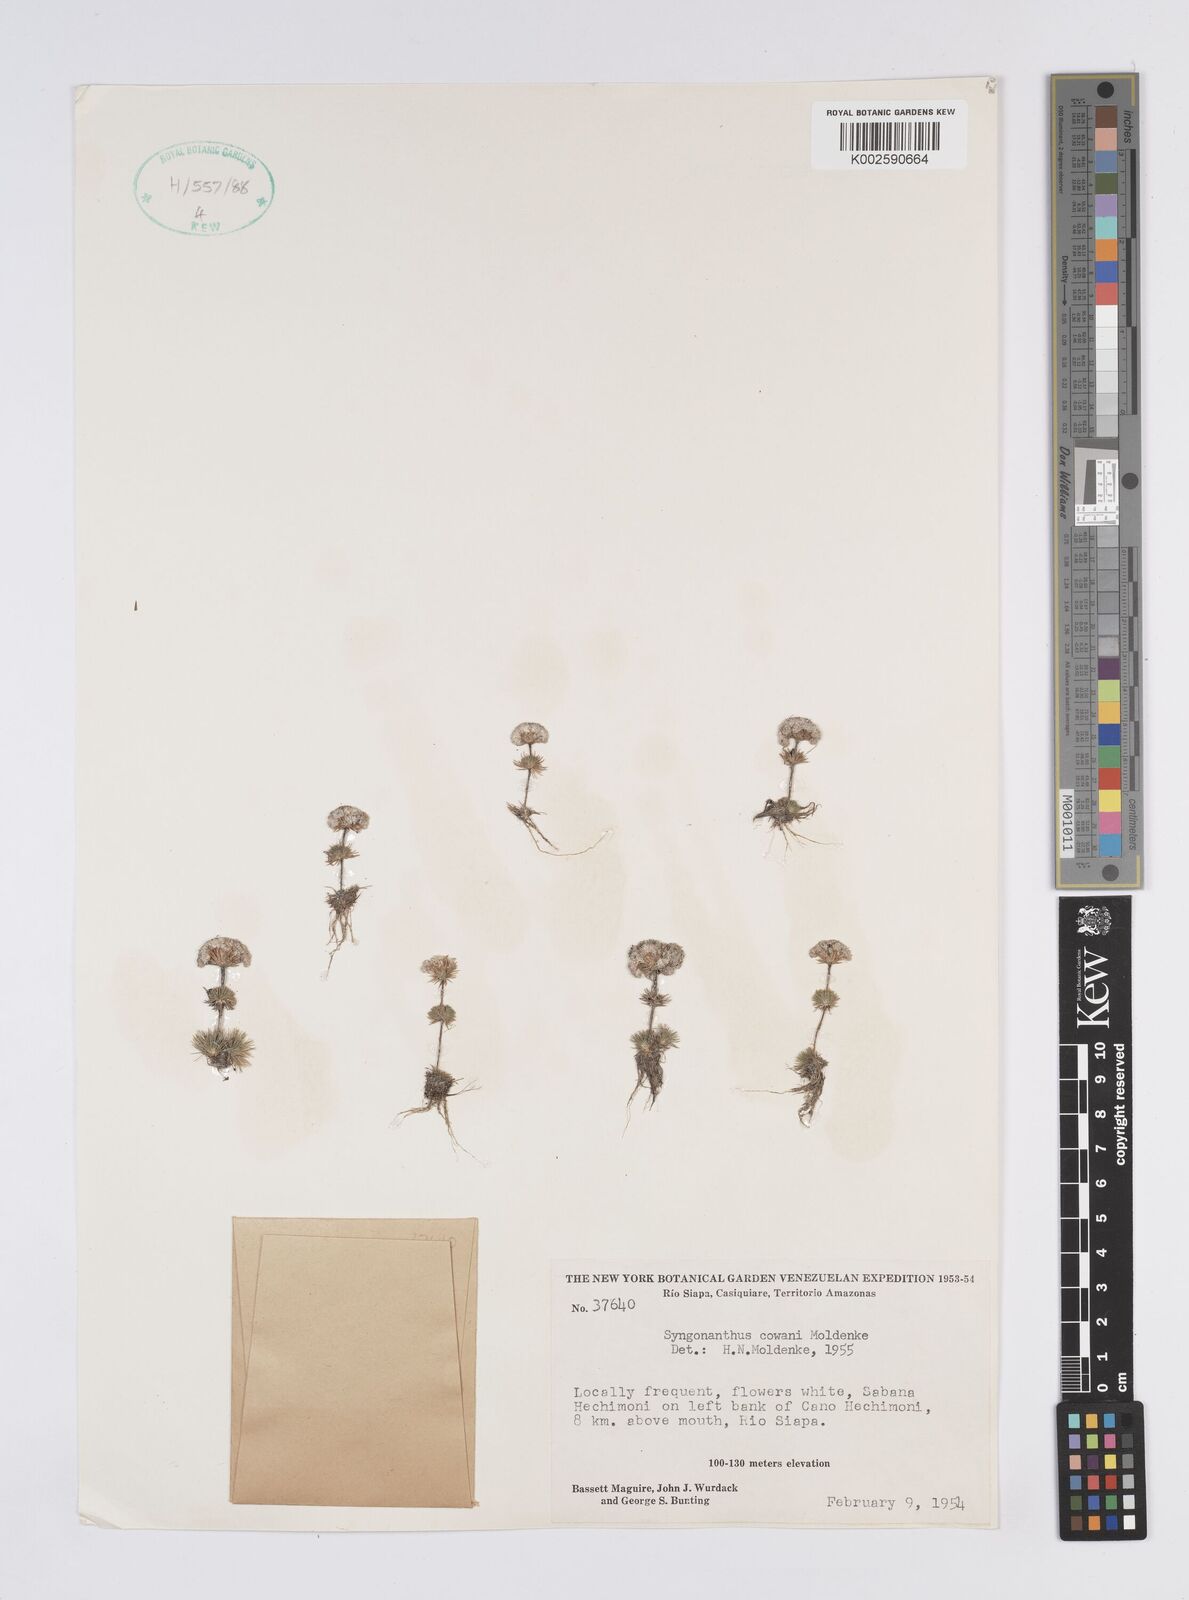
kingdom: Plantae
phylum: Tracheophyta
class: Liliopsida
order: Poales
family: Eriocaulaceae
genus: Syngonanthus
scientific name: Syngonanthus cowanii
